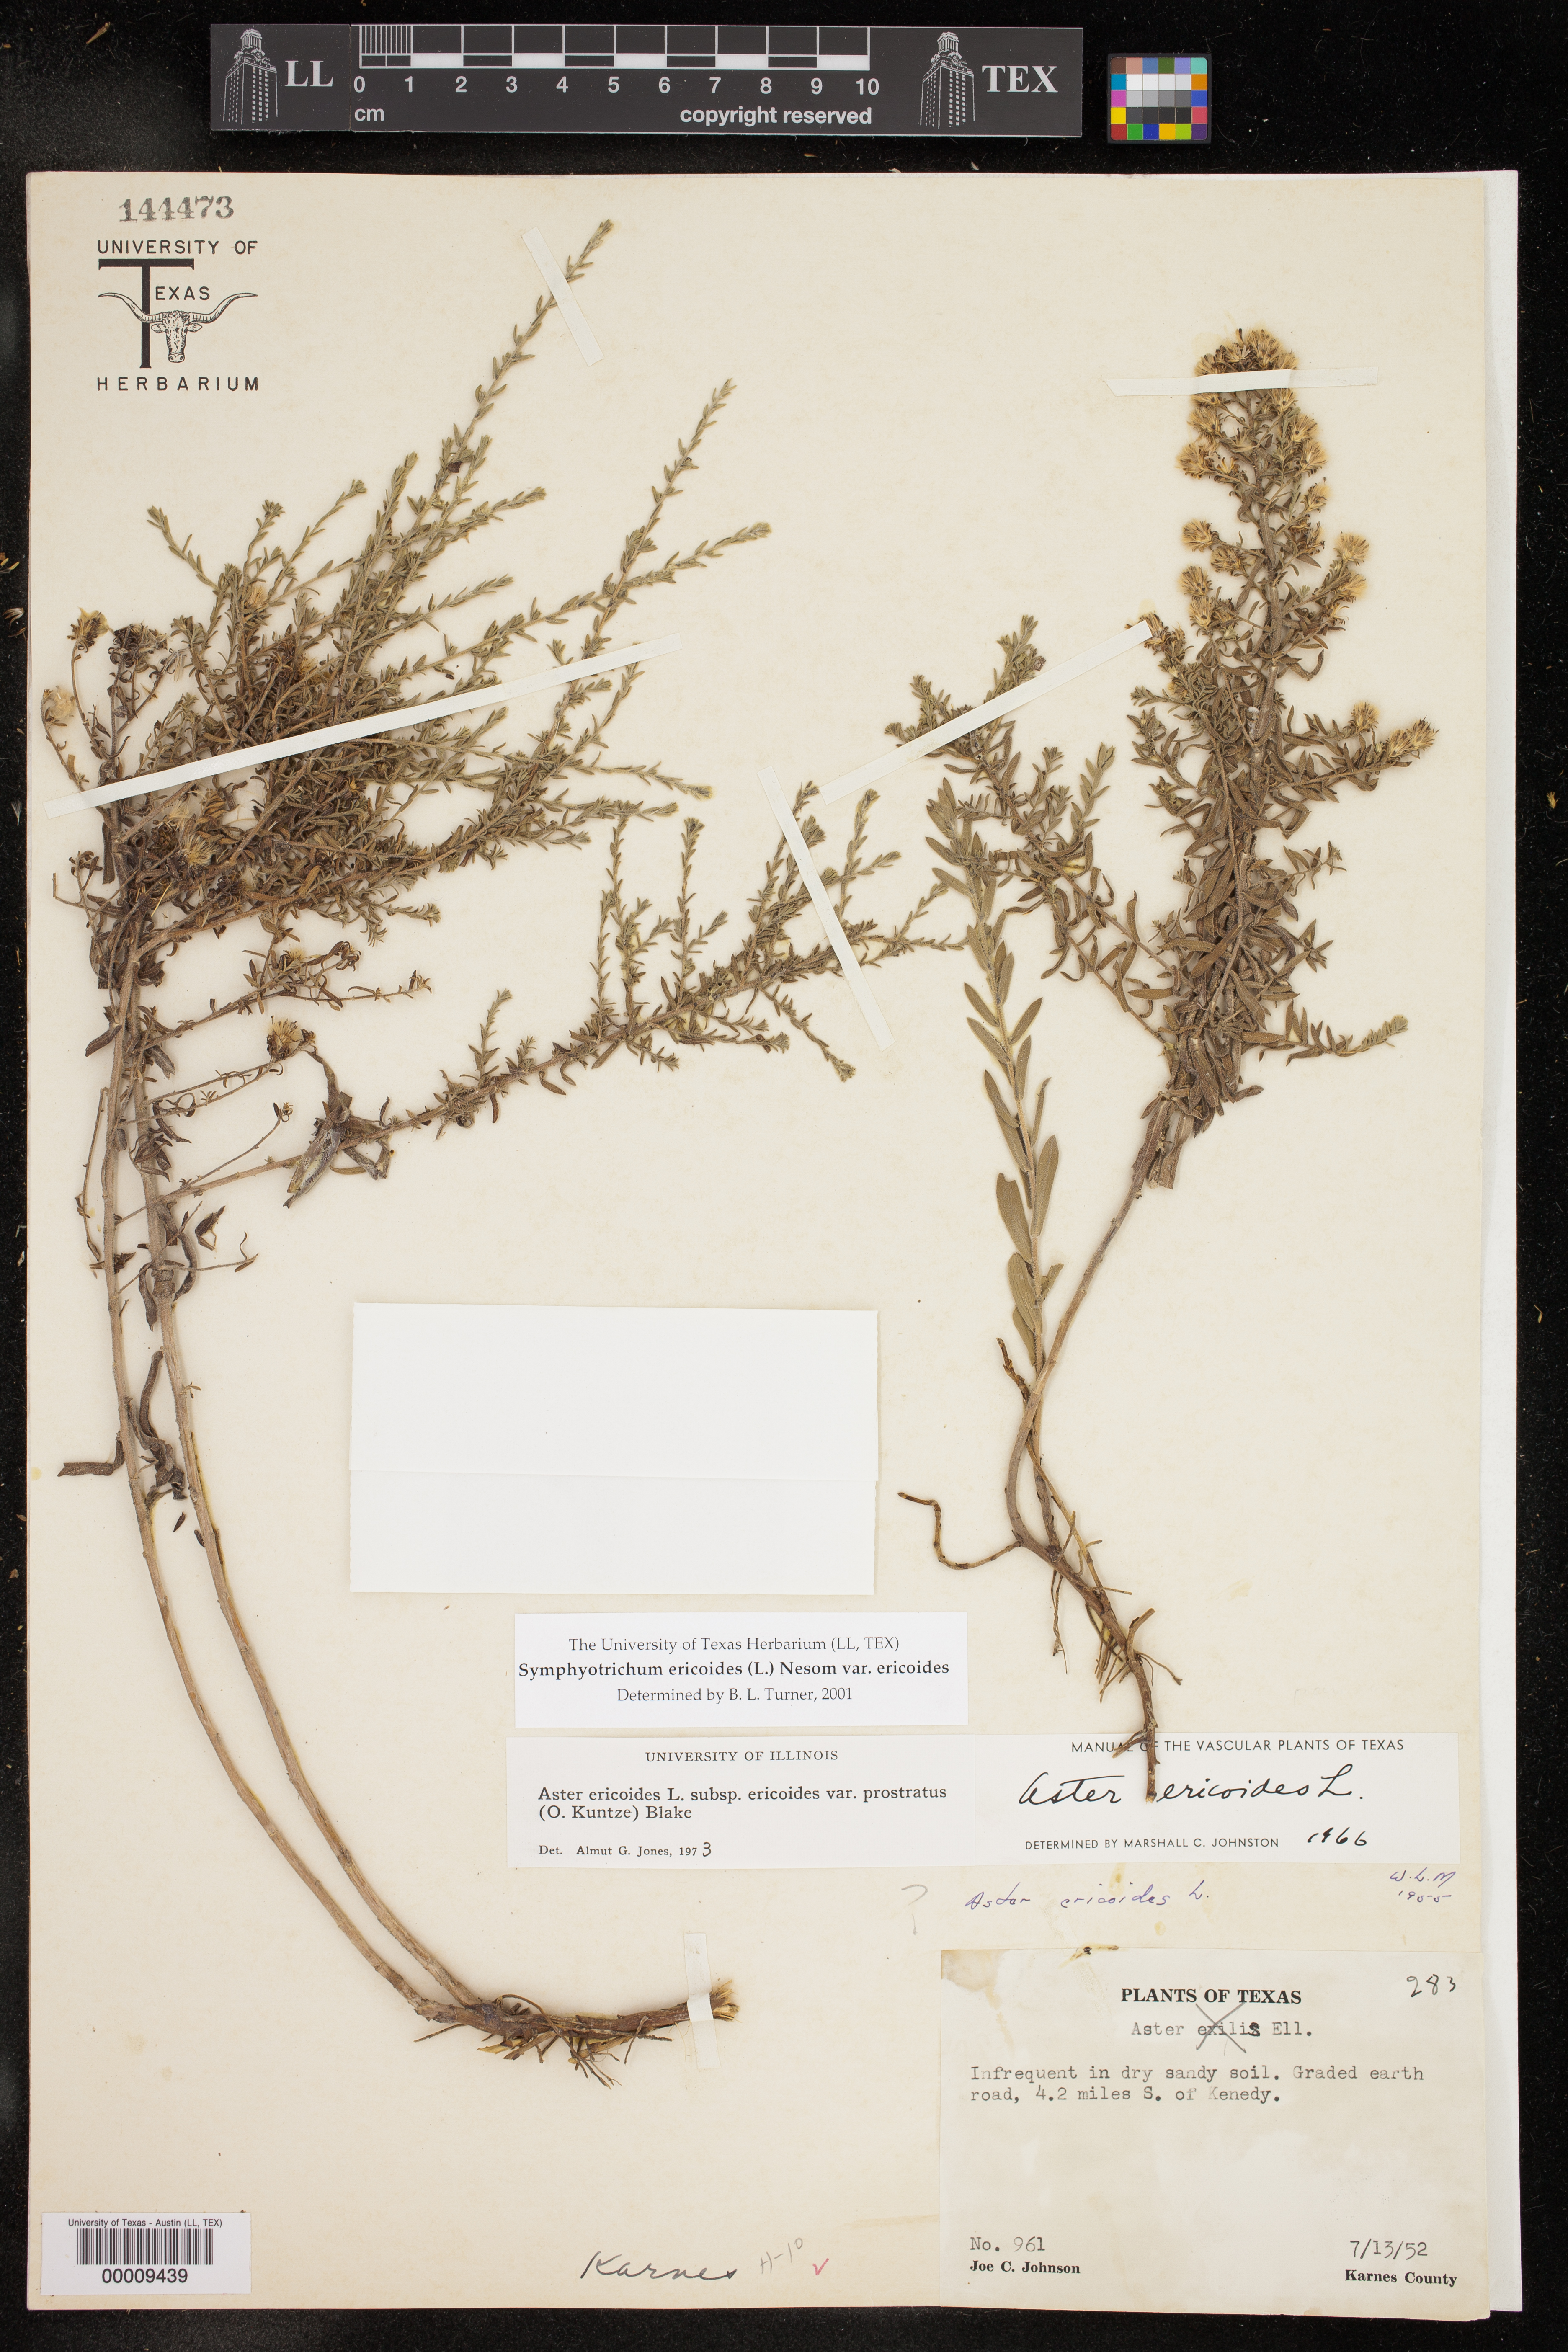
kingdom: Plantae
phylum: Tracheophyta
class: Magnoliopsida
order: Asterales
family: Asteraceae
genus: Symphyotrichum
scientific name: Symphyotrichum ericoides
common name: Heath aster
